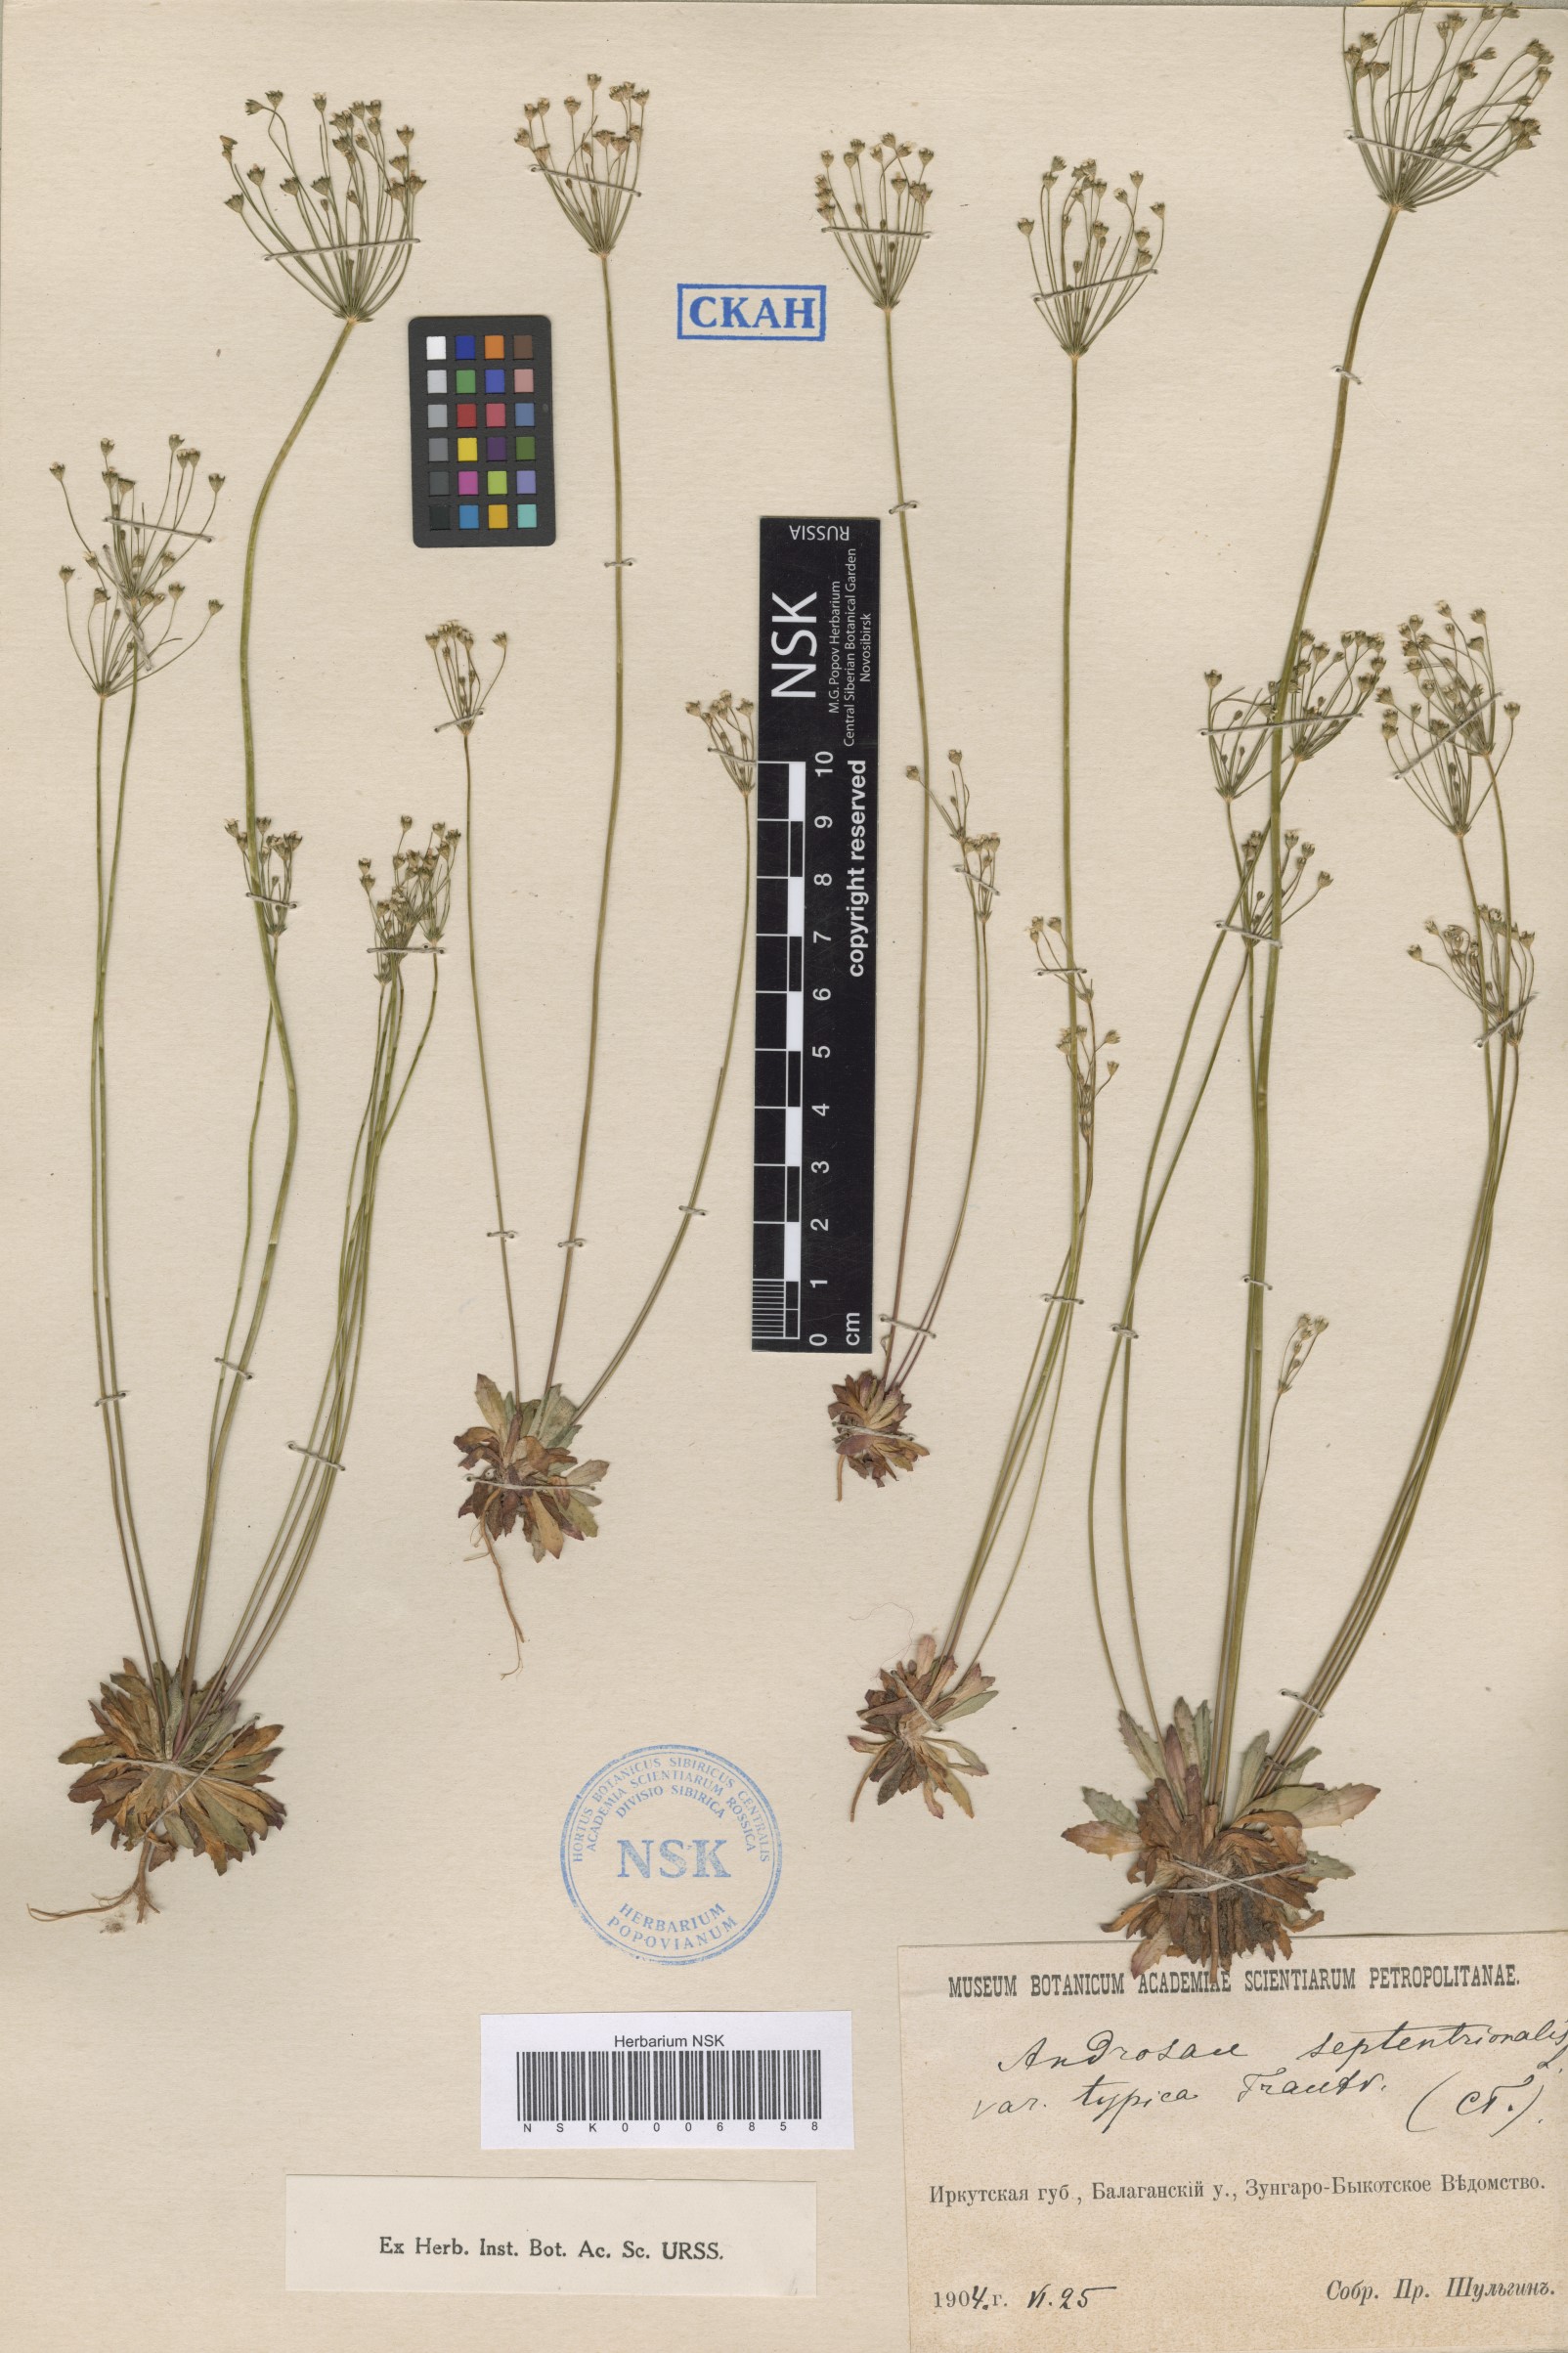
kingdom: Plantae
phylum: Tracheophyta
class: Magnoliopsida
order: Ericales
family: Primulaceae
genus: Androsace
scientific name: Androsace septentrionalis
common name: Hairy northern fairy-candelabra
